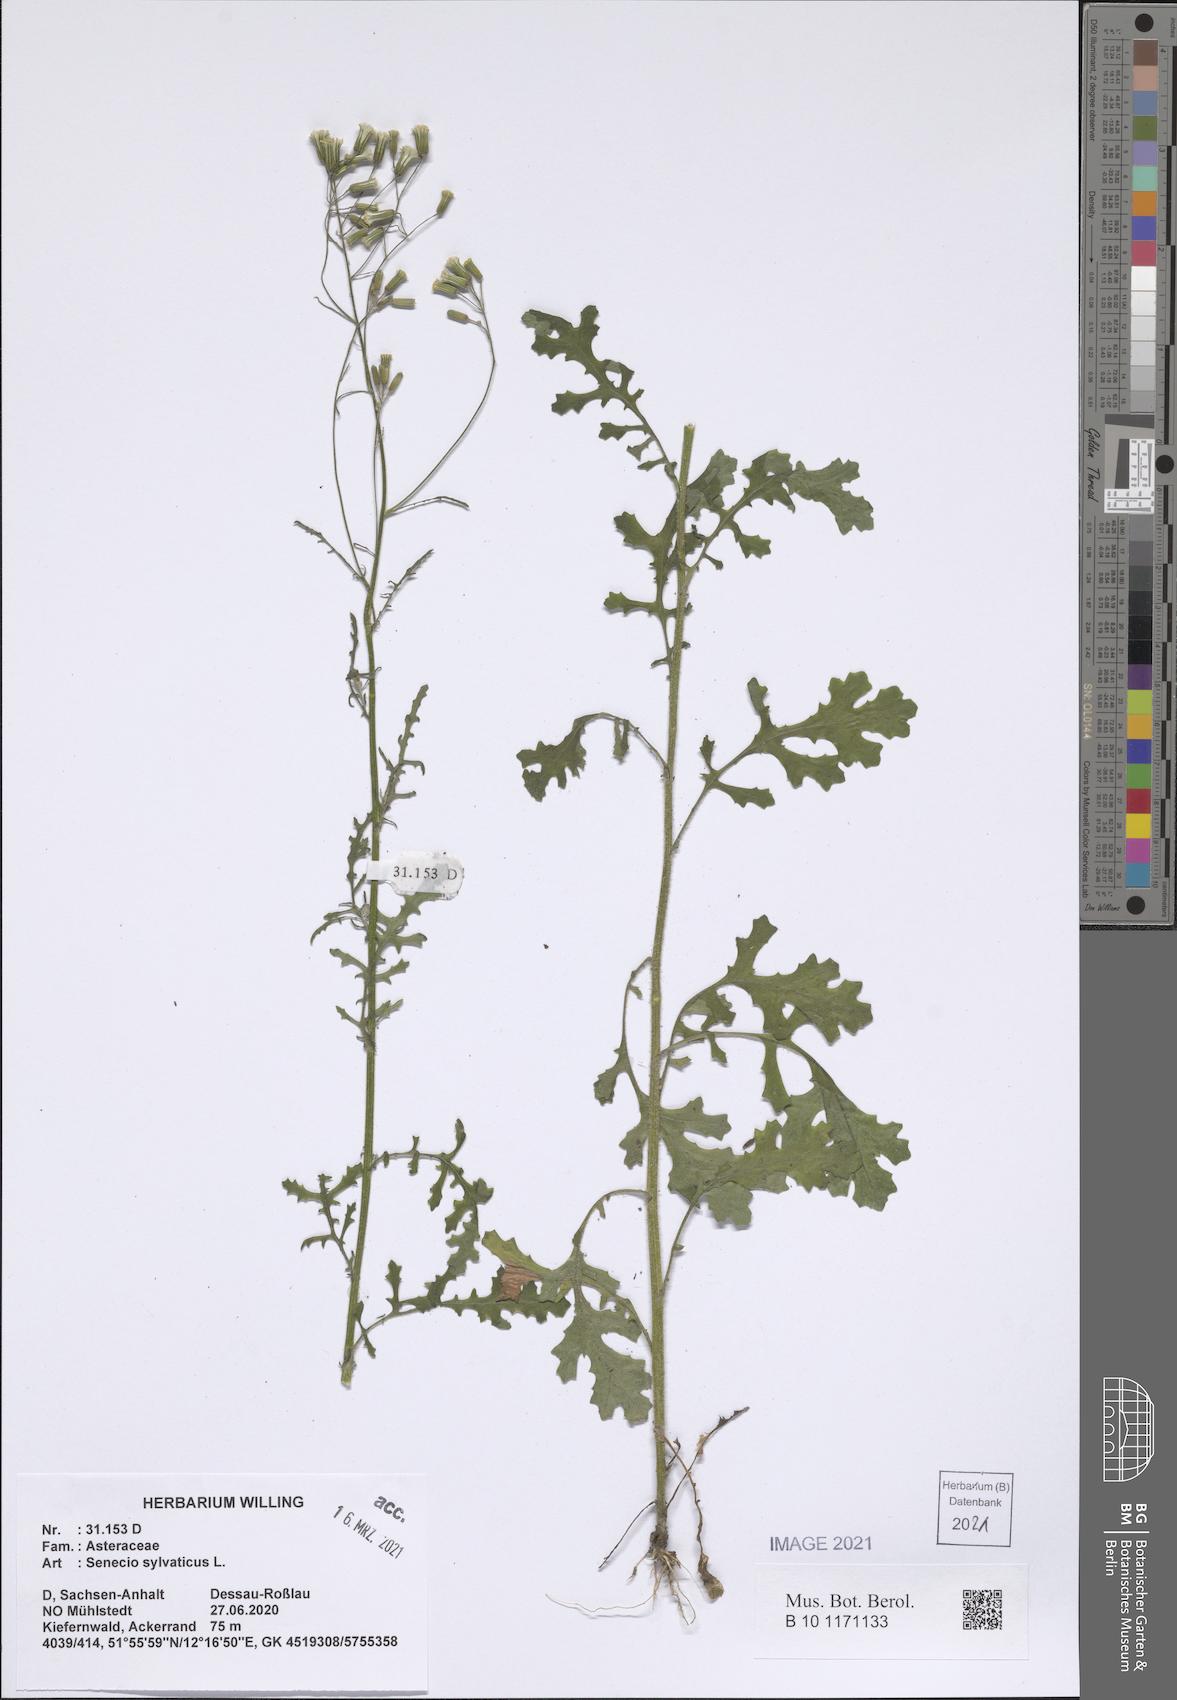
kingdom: Plantae
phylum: Tracheophyta
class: Magnoliopsida
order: Asterales
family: Asteraceae
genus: Senecio
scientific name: Senecio sylvaticus
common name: Woodland ragwort
